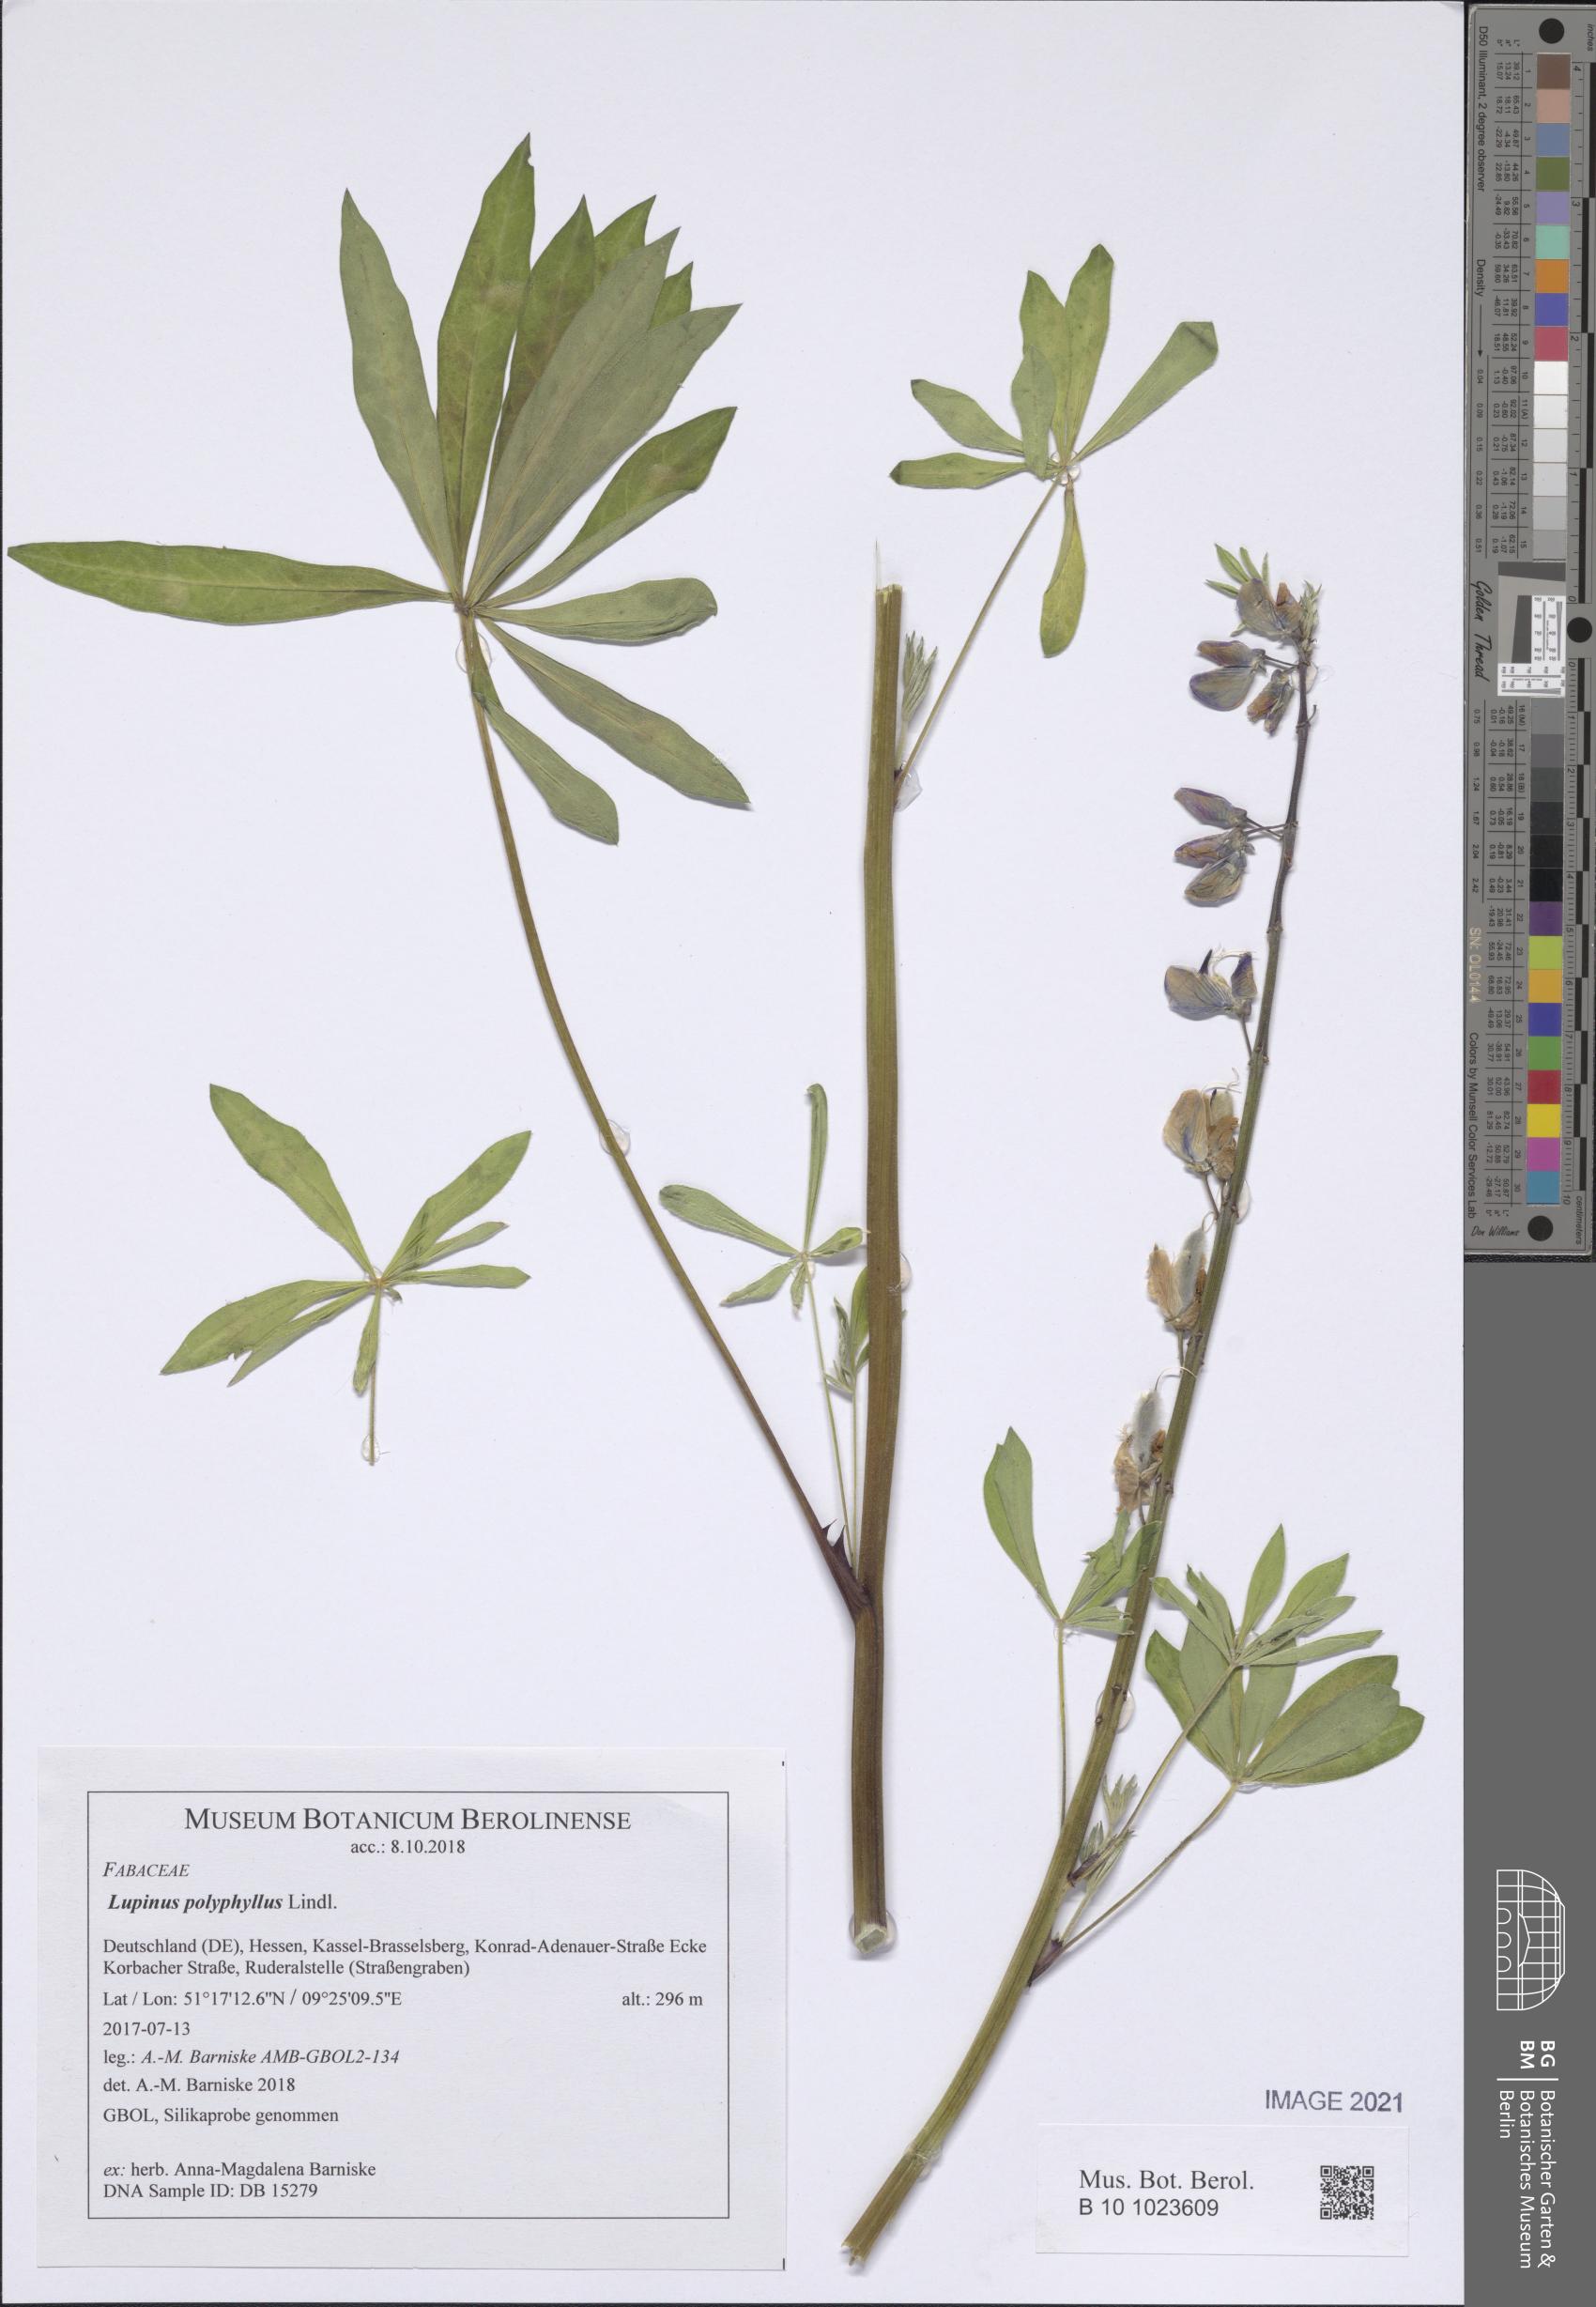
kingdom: Plantae
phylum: Tracheophyta
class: Magnoliopsida
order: Fabales
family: Fabaceae
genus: Lupinus
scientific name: Lupinus polyphyllus
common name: Garden lupin
